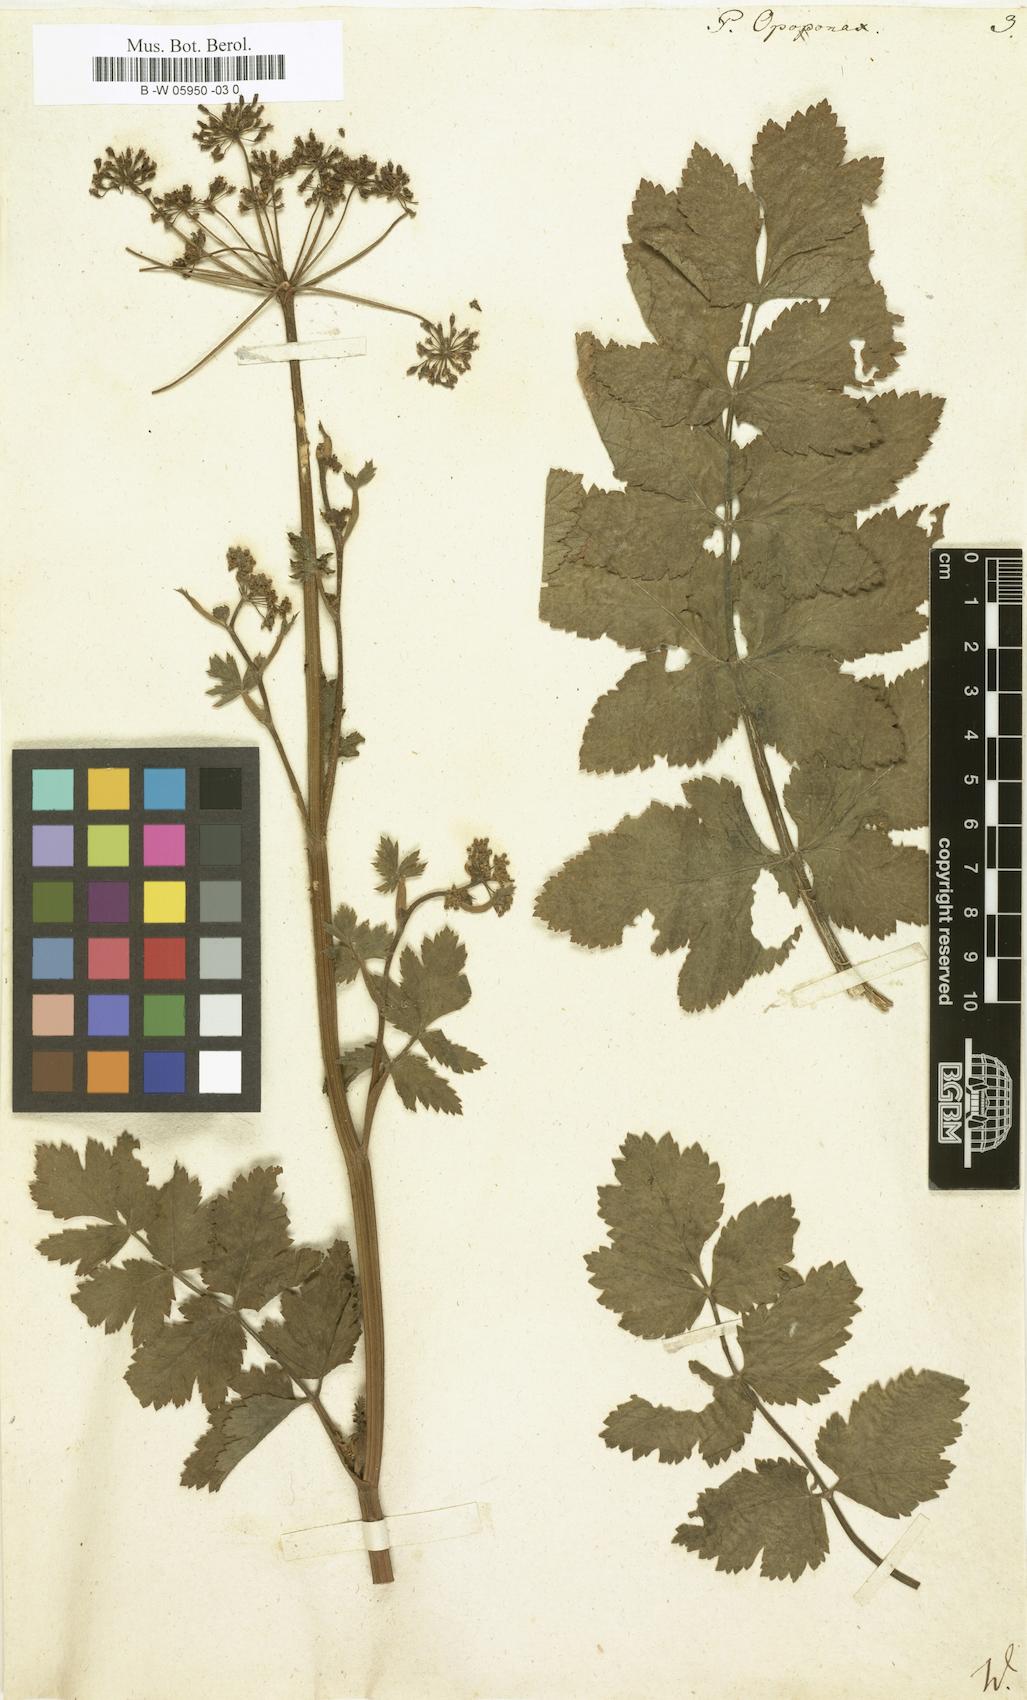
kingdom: Plantae
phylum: Tracheophyta
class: Magnoliopsida
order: Apiales
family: Apiaceae
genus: Opopanax
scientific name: Opopanax chironium
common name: Hercules-all-heal
